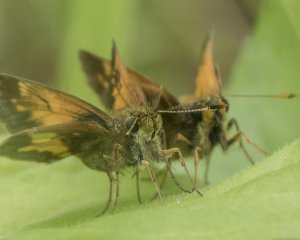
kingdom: Animalia
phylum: Arthropoda
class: Insecta
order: Lepidoptera
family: Hesperiidae
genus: Lon
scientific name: Lon hobomok
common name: Hobomok Skipper
